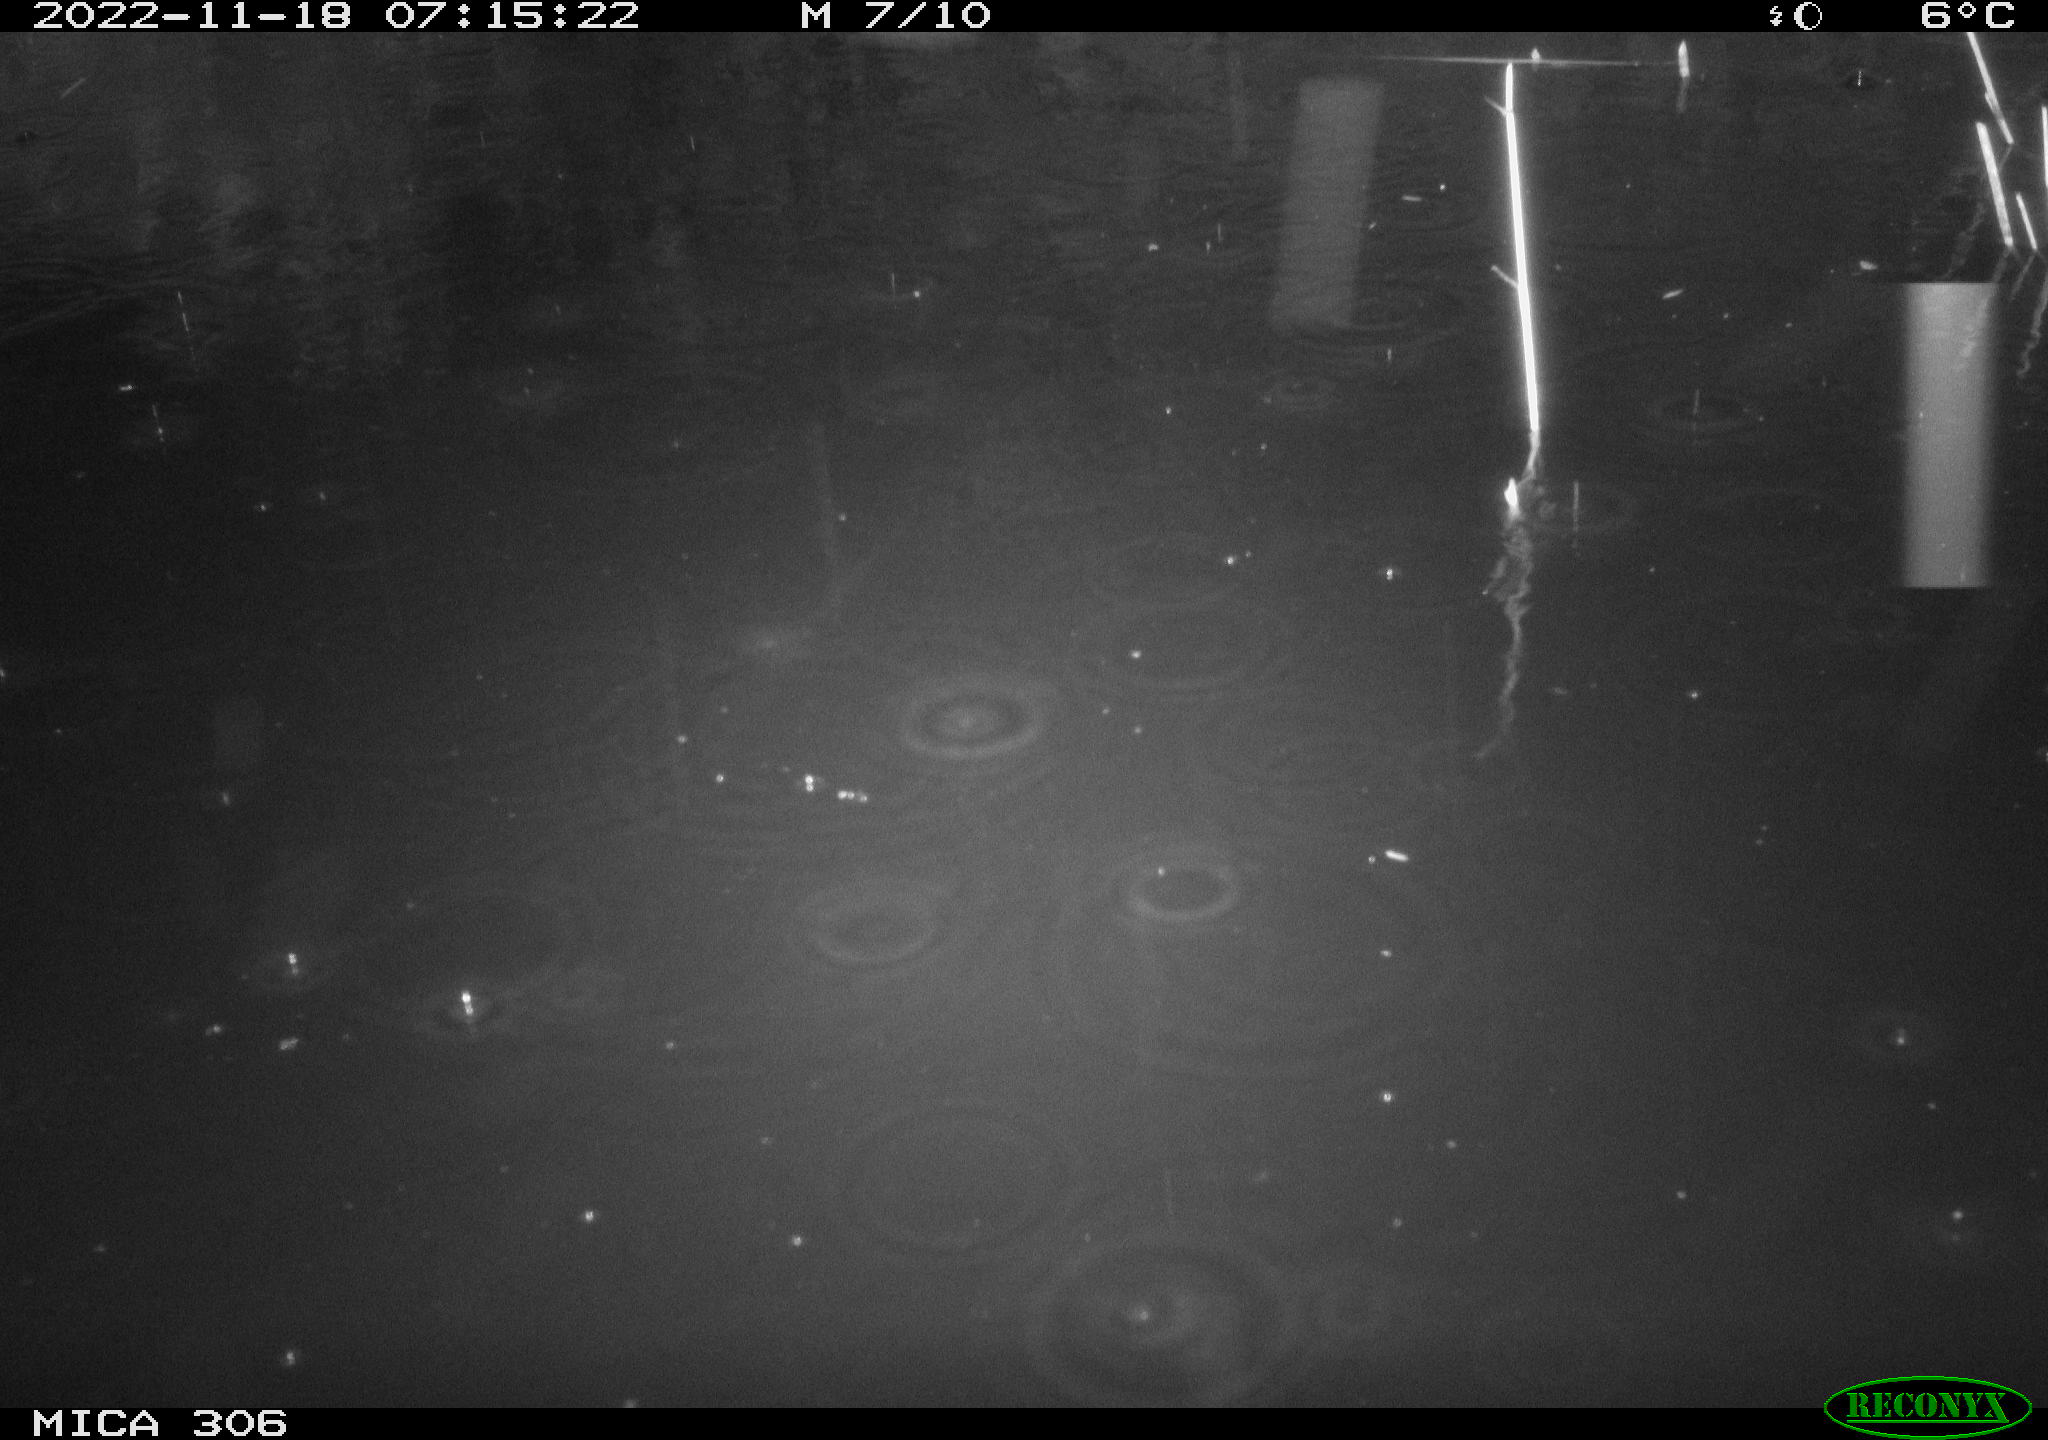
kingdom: Animalia
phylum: Chordata
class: Mammalia
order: Rodentia
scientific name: Rodentia
